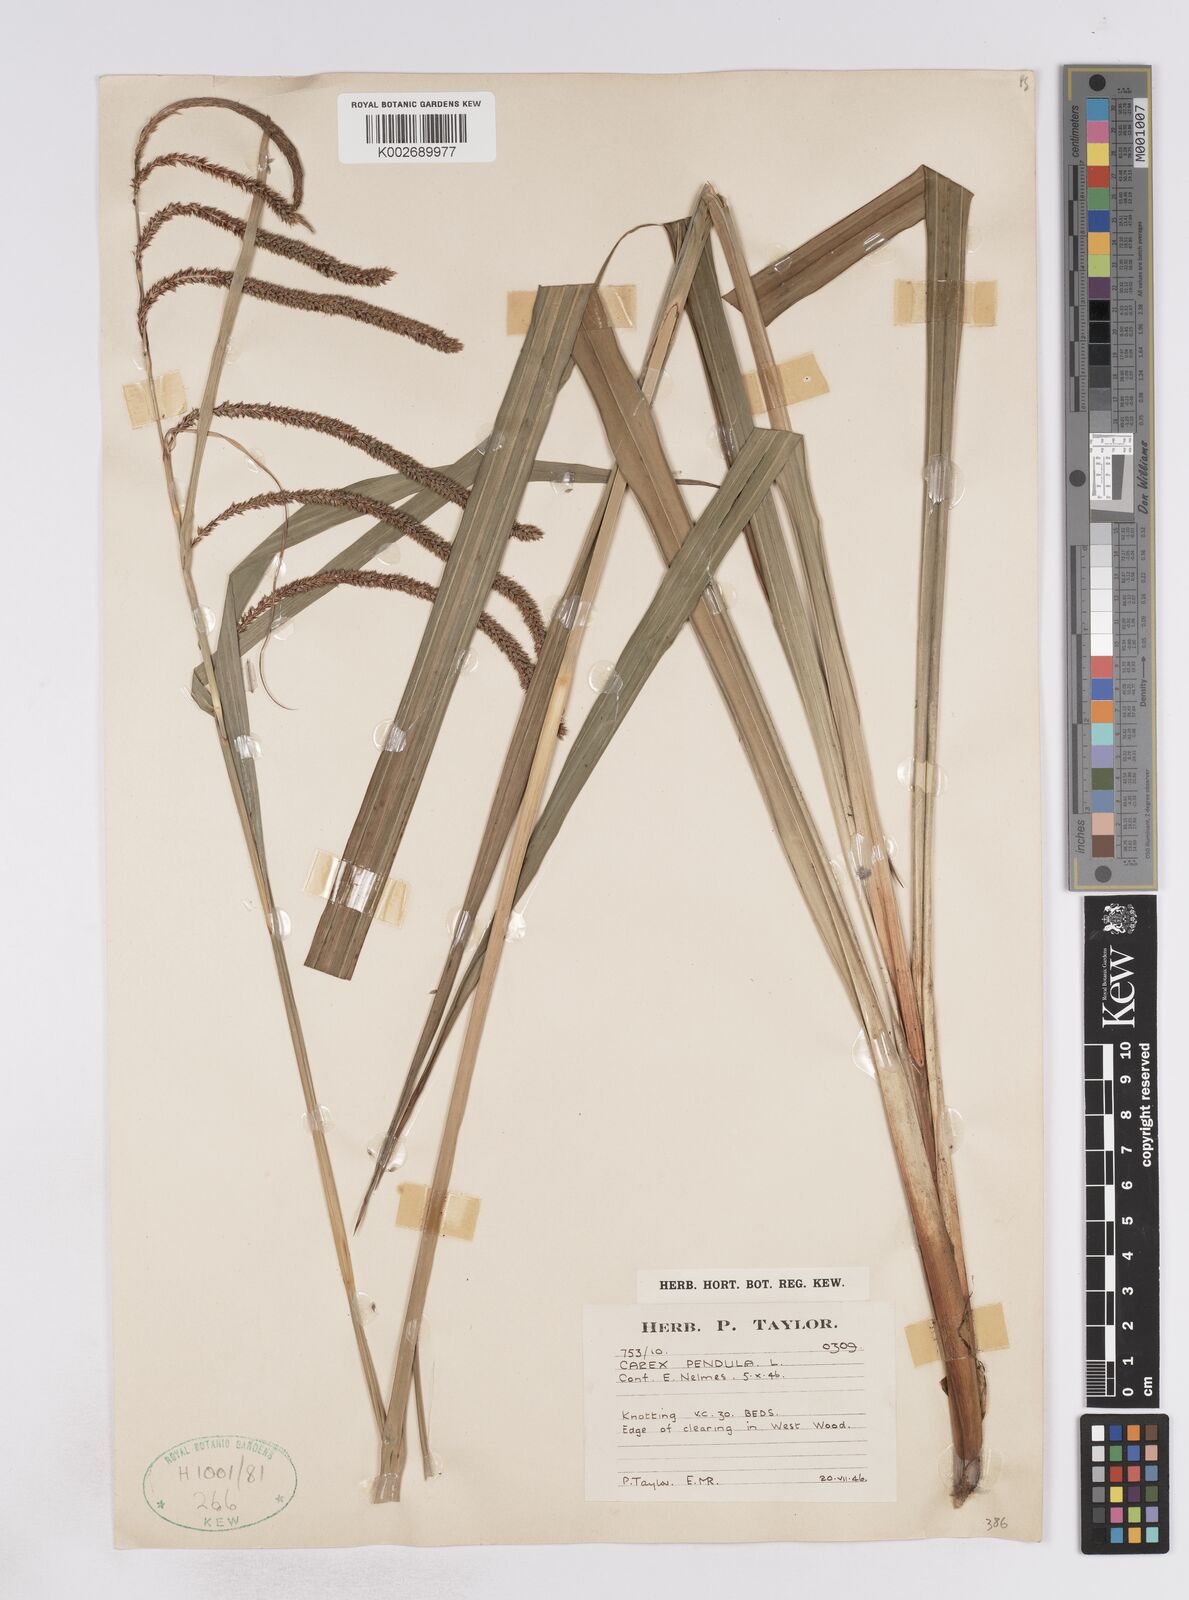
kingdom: Plantae
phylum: Tracheophyta
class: Liliopsida
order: Poales
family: Cyperaceae
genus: Carex
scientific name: Carex pendula
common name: Pendulous sedge
